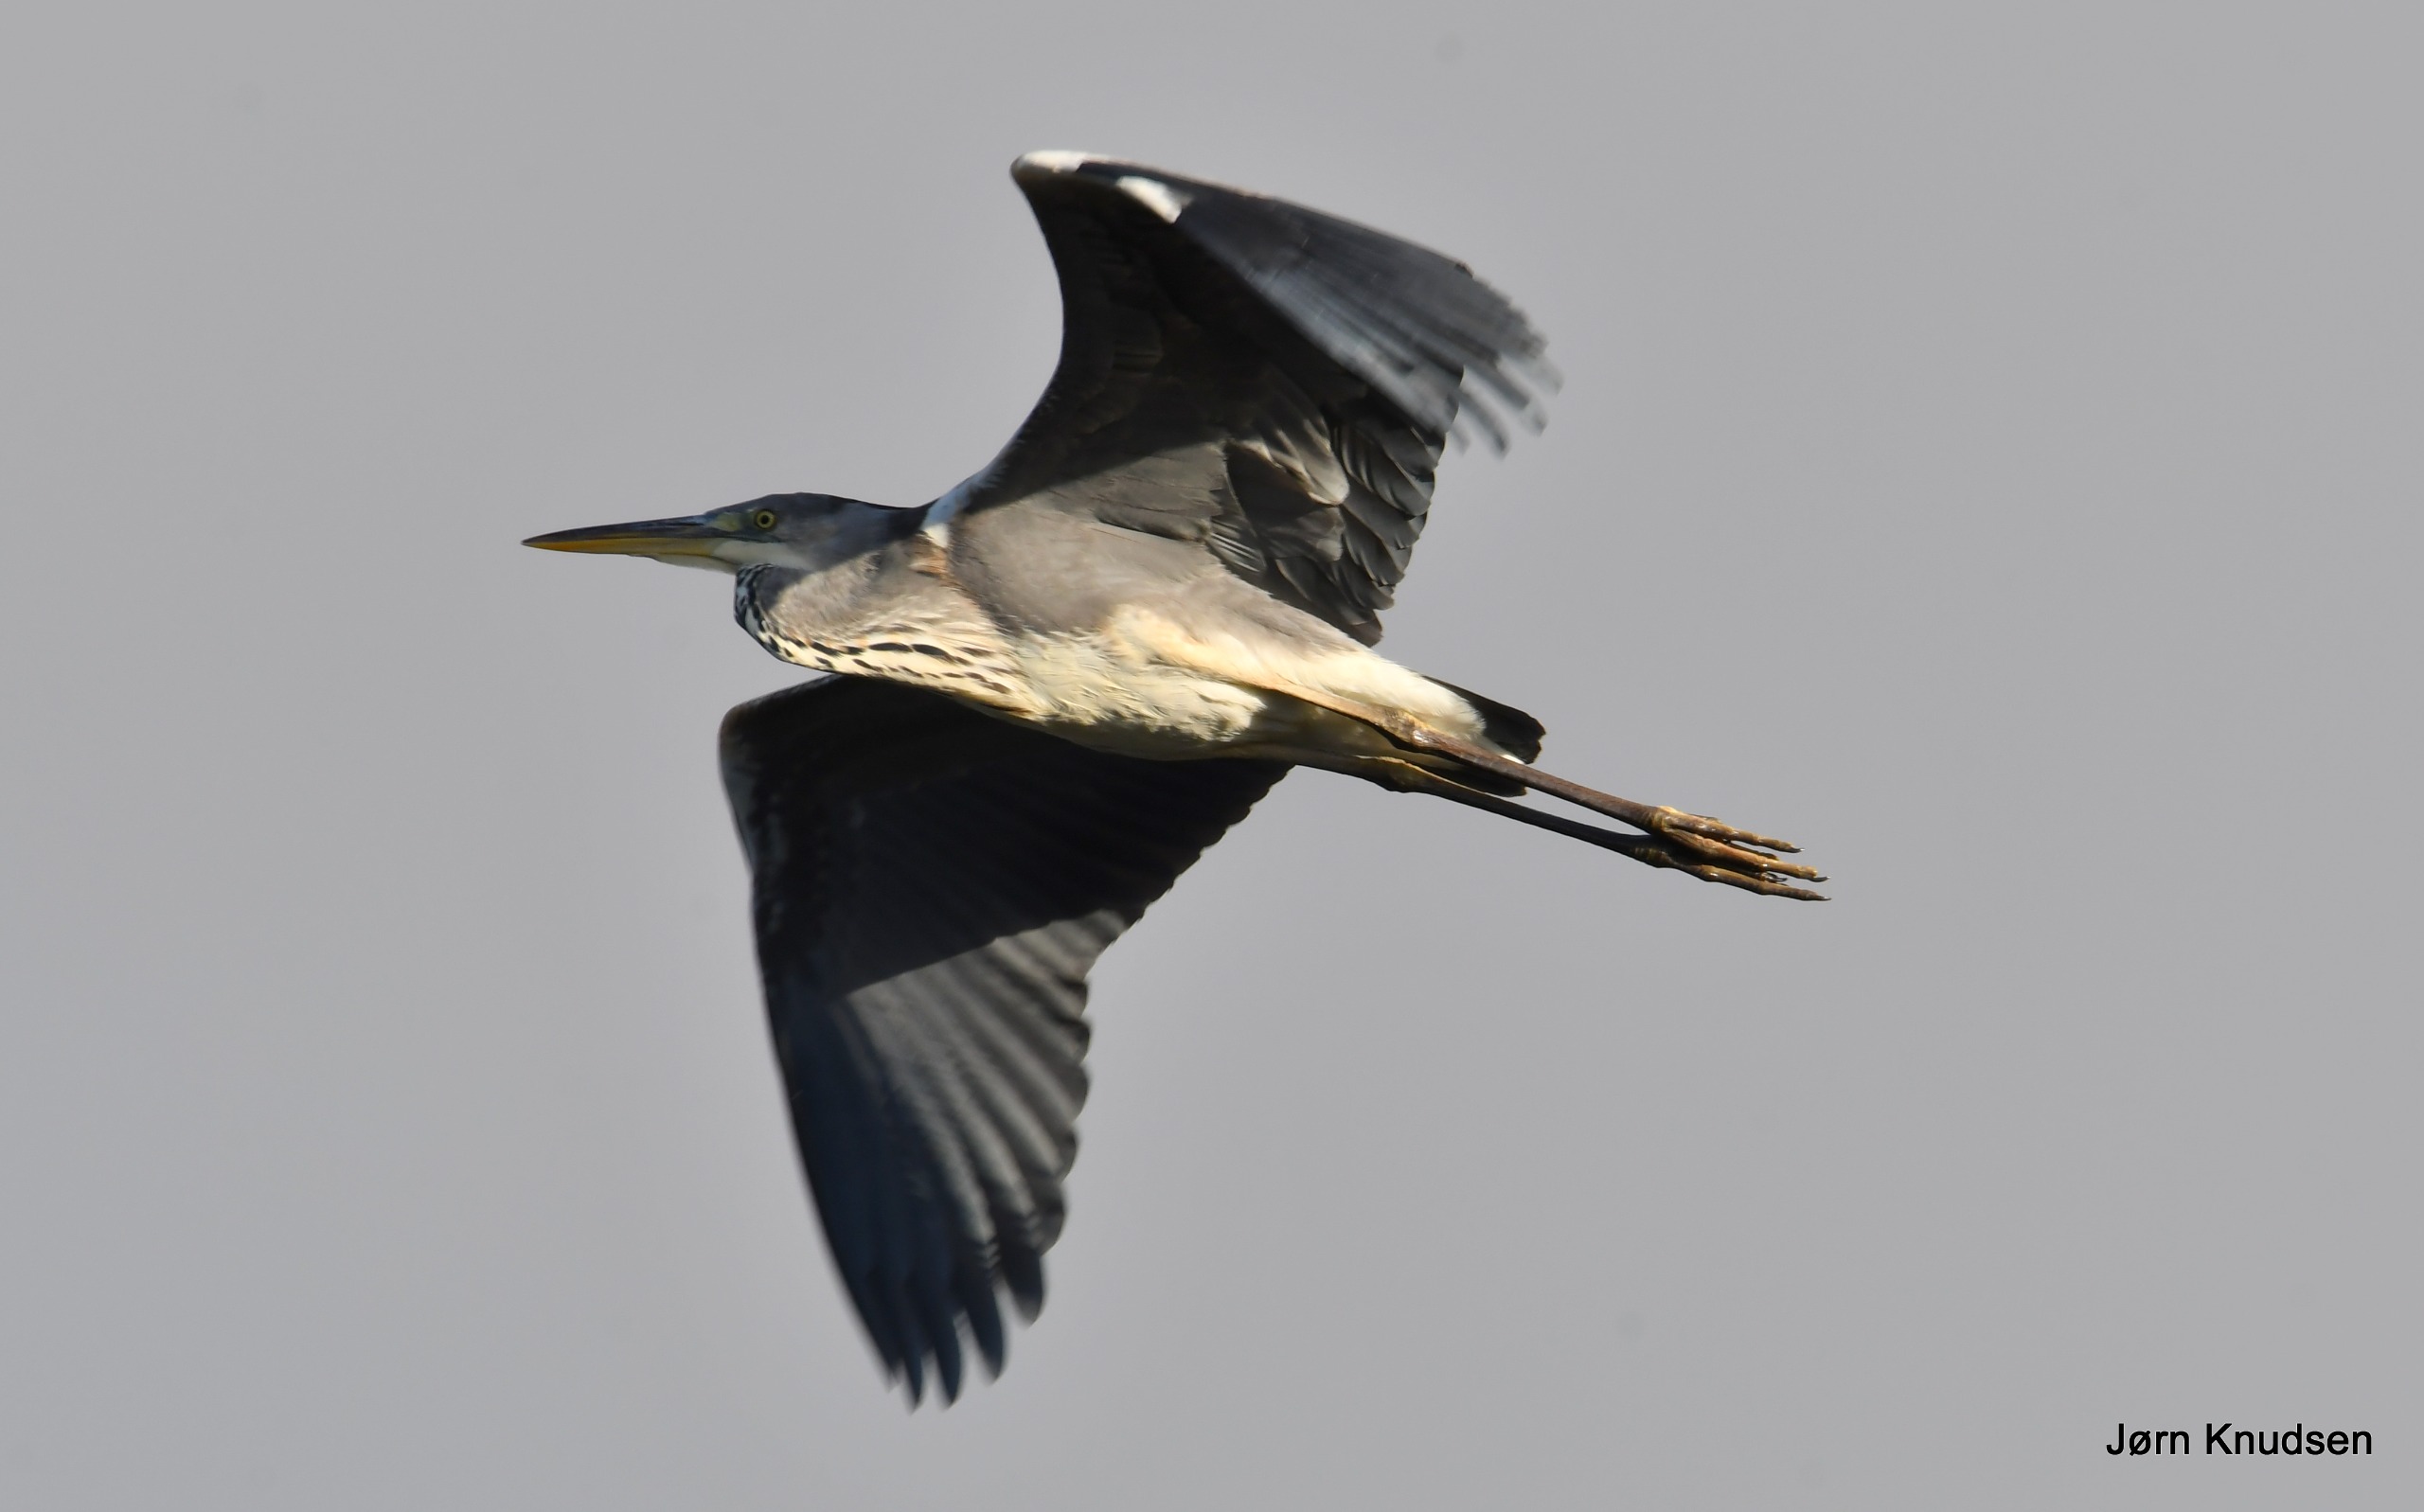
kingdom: Animalia
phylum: Chordata
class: Aves
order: Pelecaniformes
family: Ardeidae
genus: Ardea
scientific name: Ardea cinerea
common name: Fiskehejre
